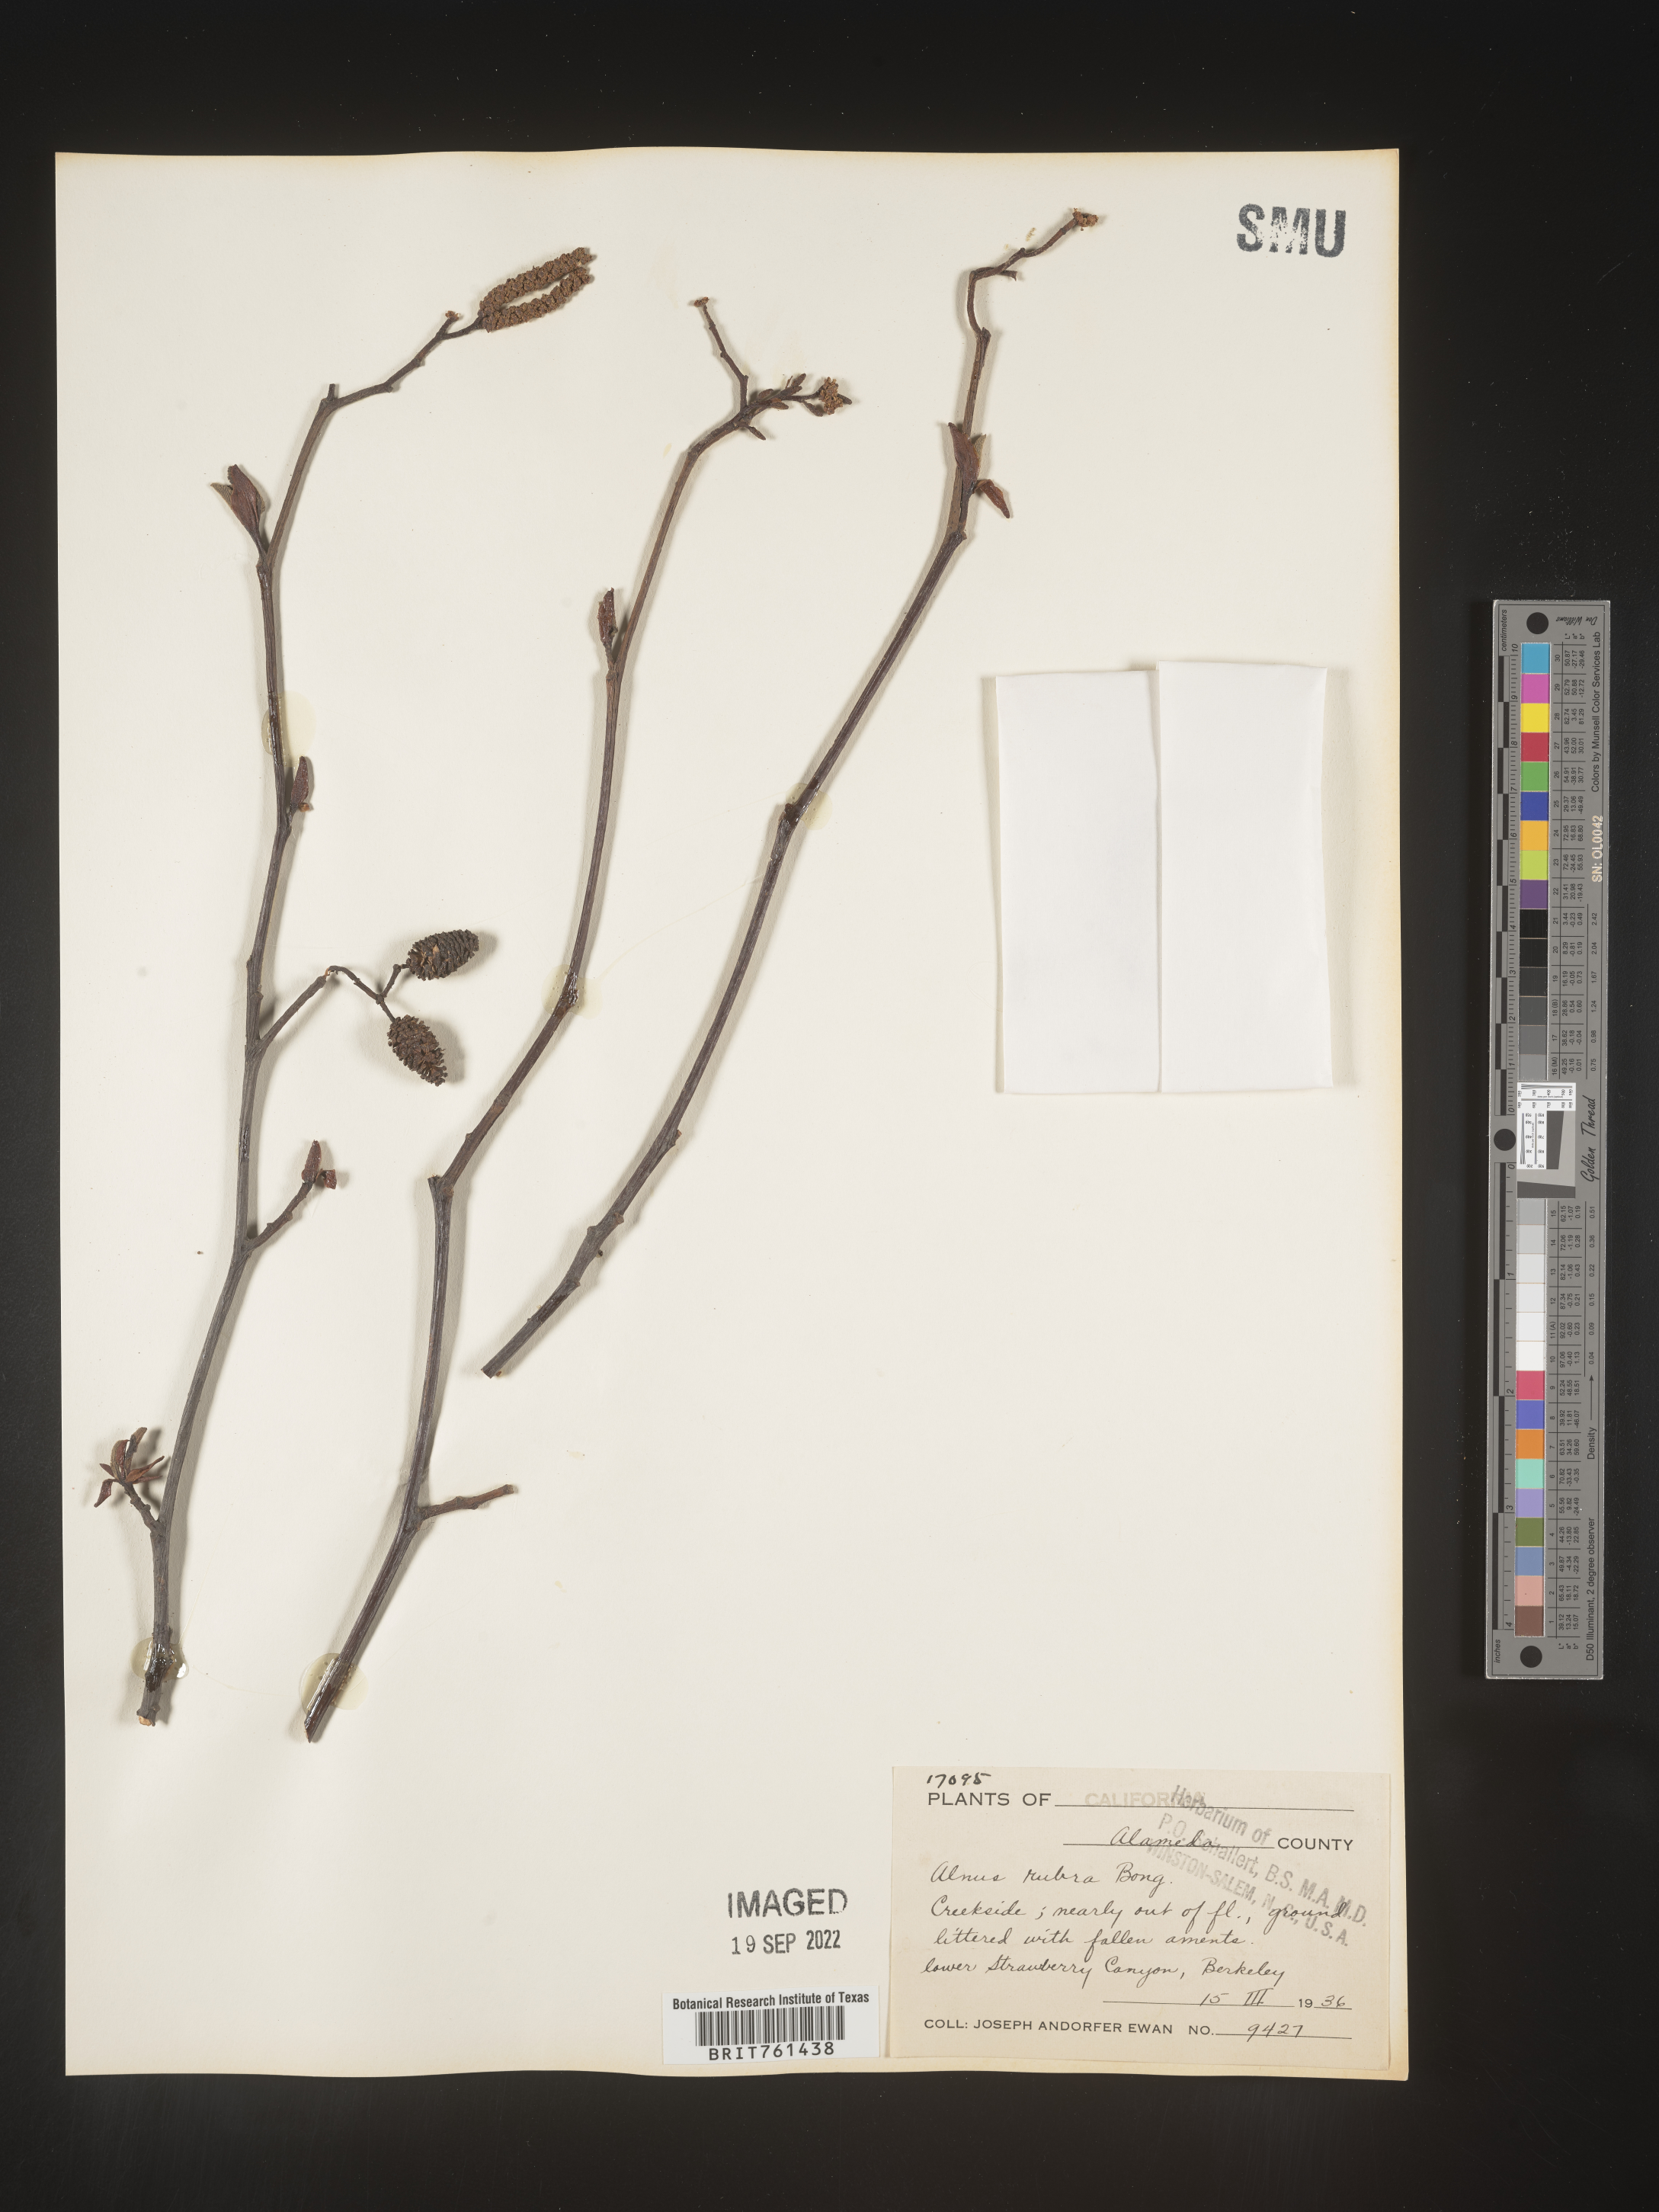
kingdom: Plantae
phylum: Tracheophyta
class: Magnoliopsida
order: Fagales
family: Betulaceae
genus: Alnus
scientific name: Alnus rubra
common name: Red alder
